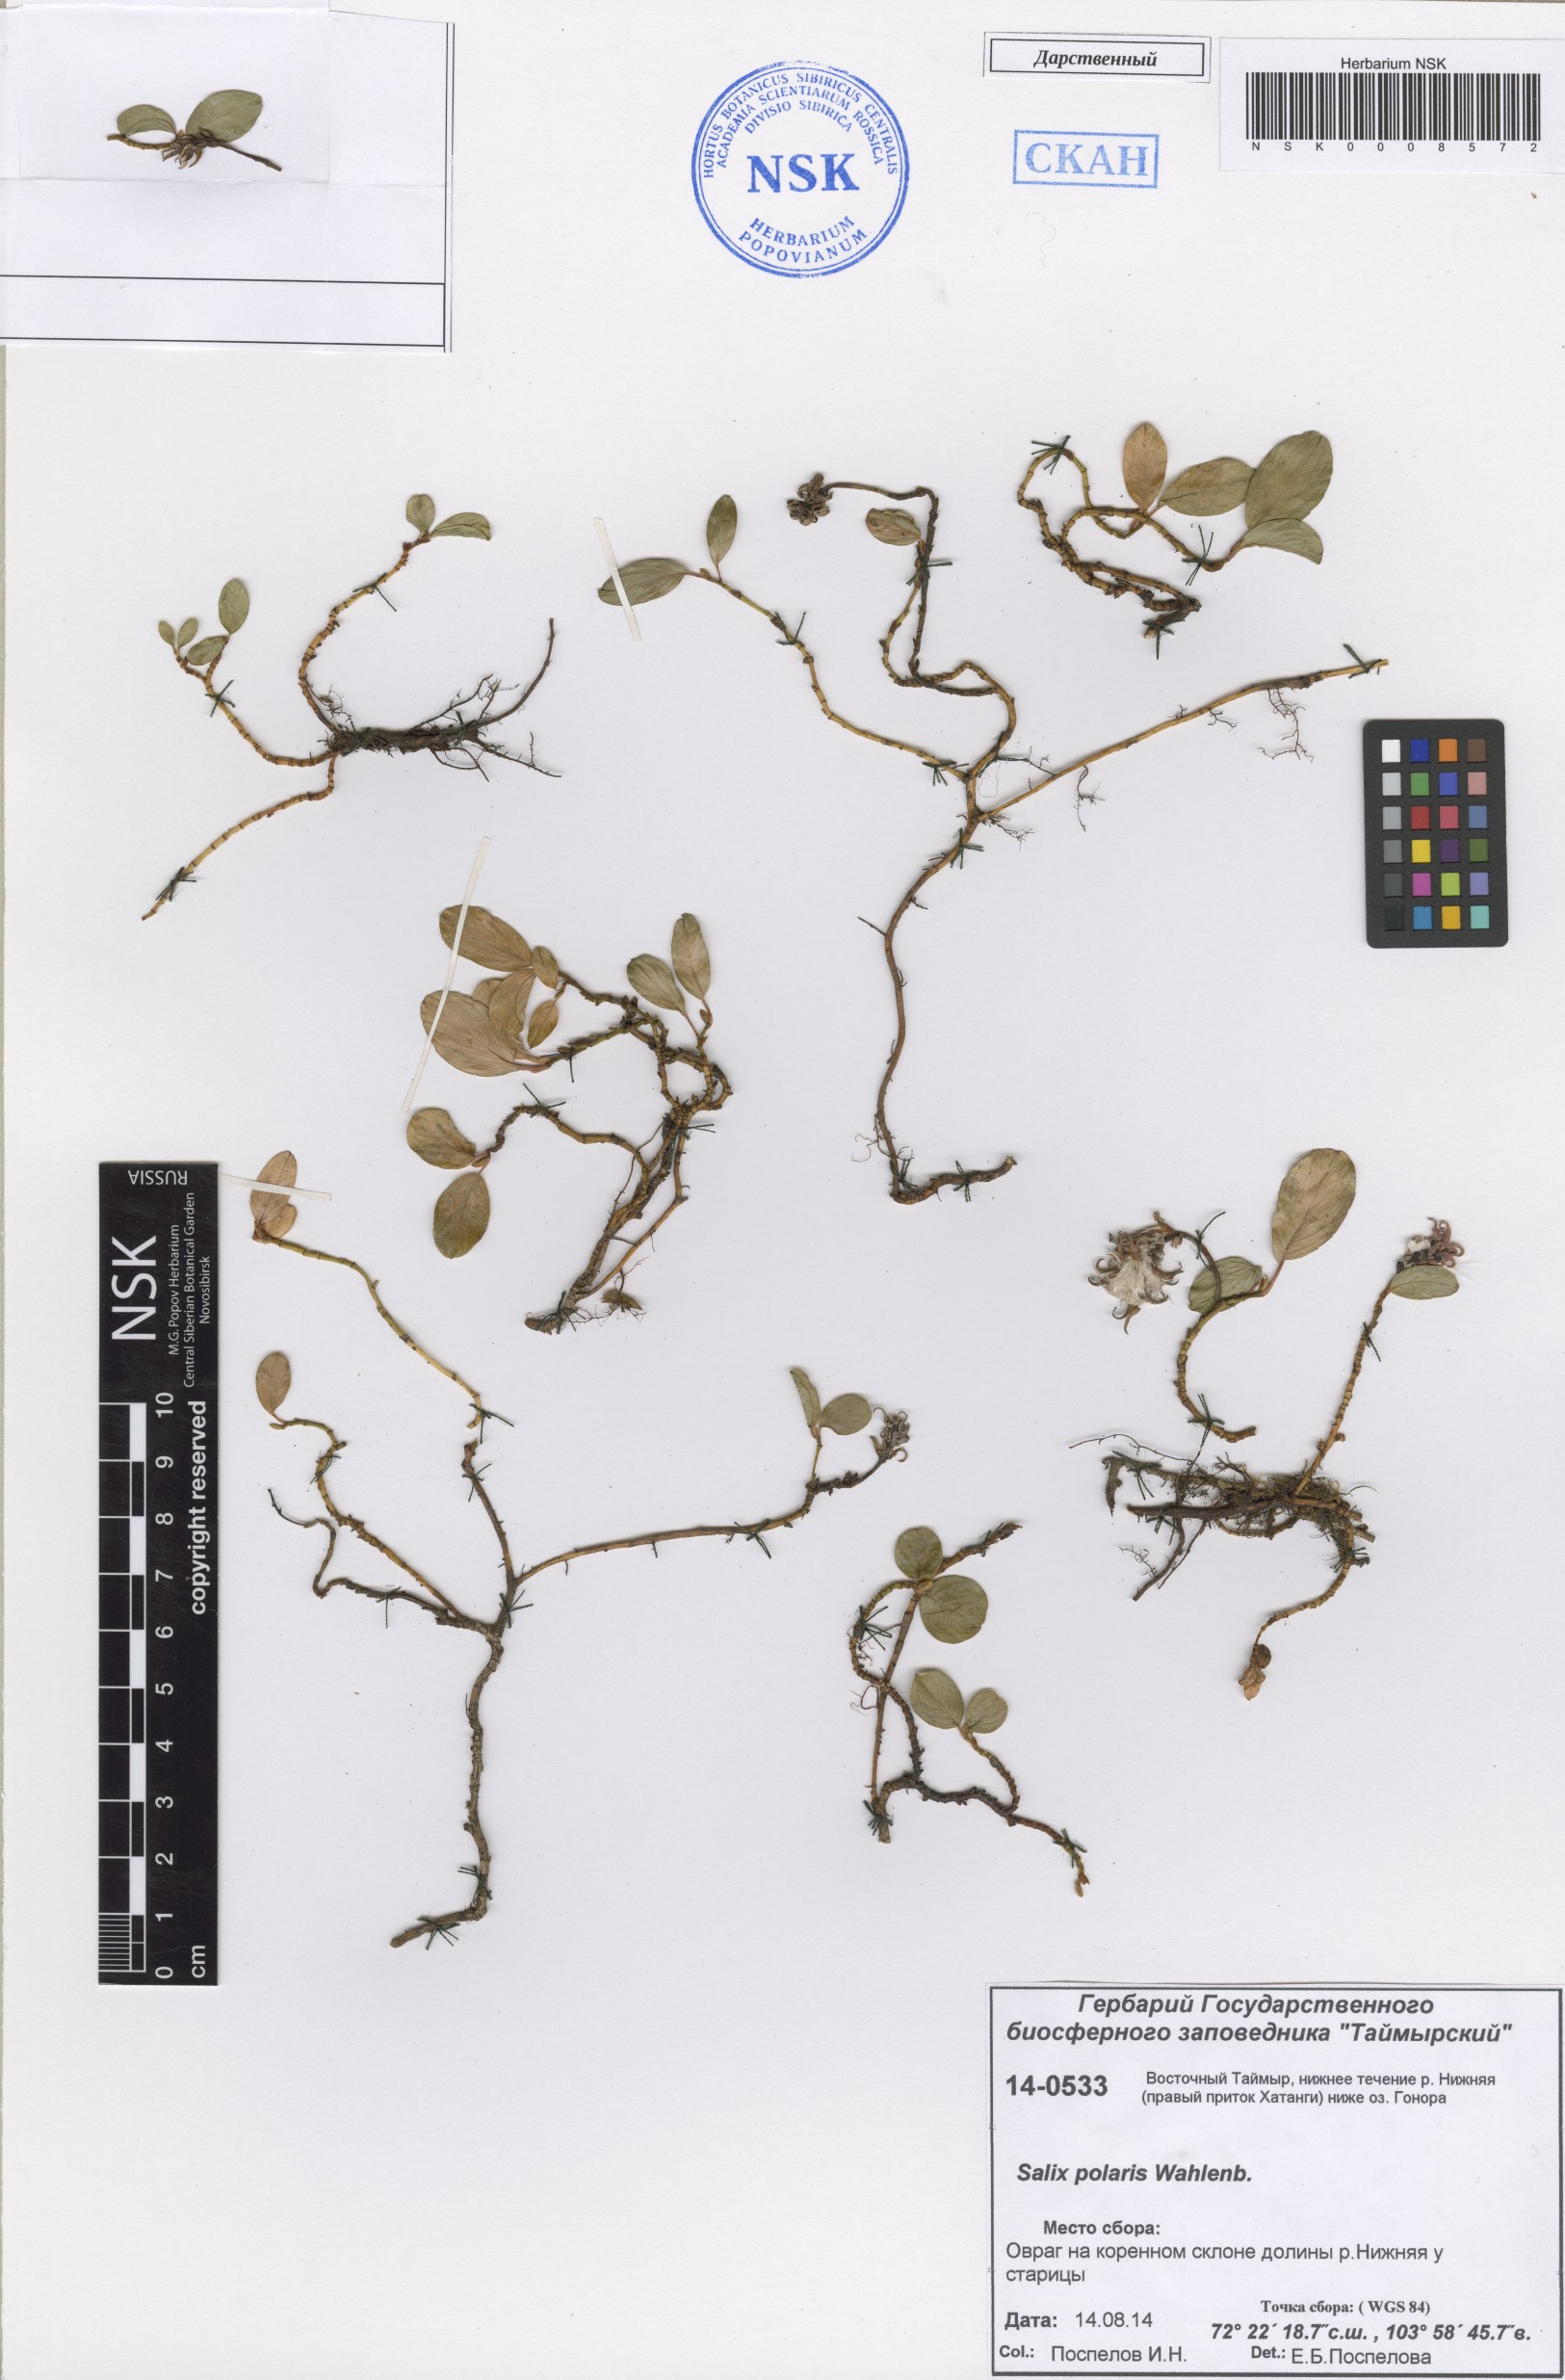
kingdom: Plantae
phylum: Tracheophyta
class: Magnoliopsida
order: Malpighiales
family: Salicaceae
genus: Salix
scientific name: Salix polaris
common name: Polar willow
